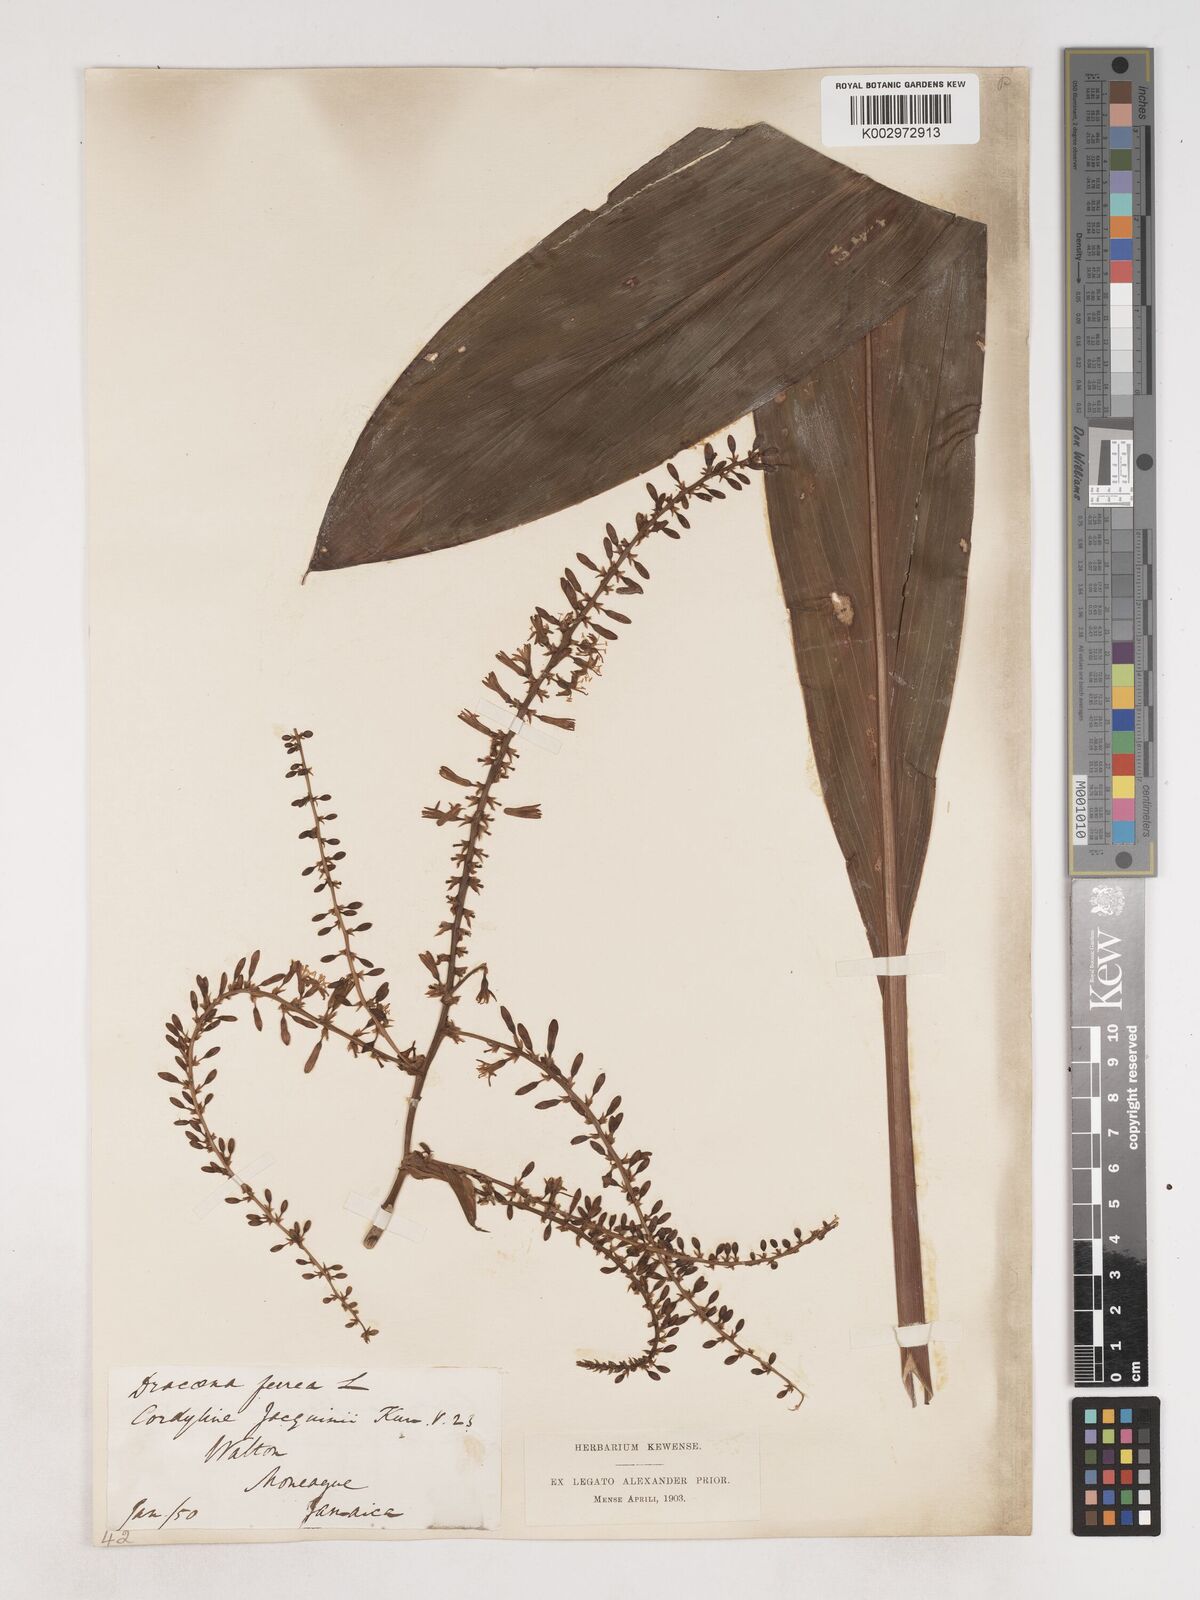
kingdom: Plantae
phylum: Tracheophyta
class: Liliopsida
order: Asparagales
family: Asparagaceae
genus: Cordyline
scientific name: Cordyline fruticosa
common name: Good-luck-plant
